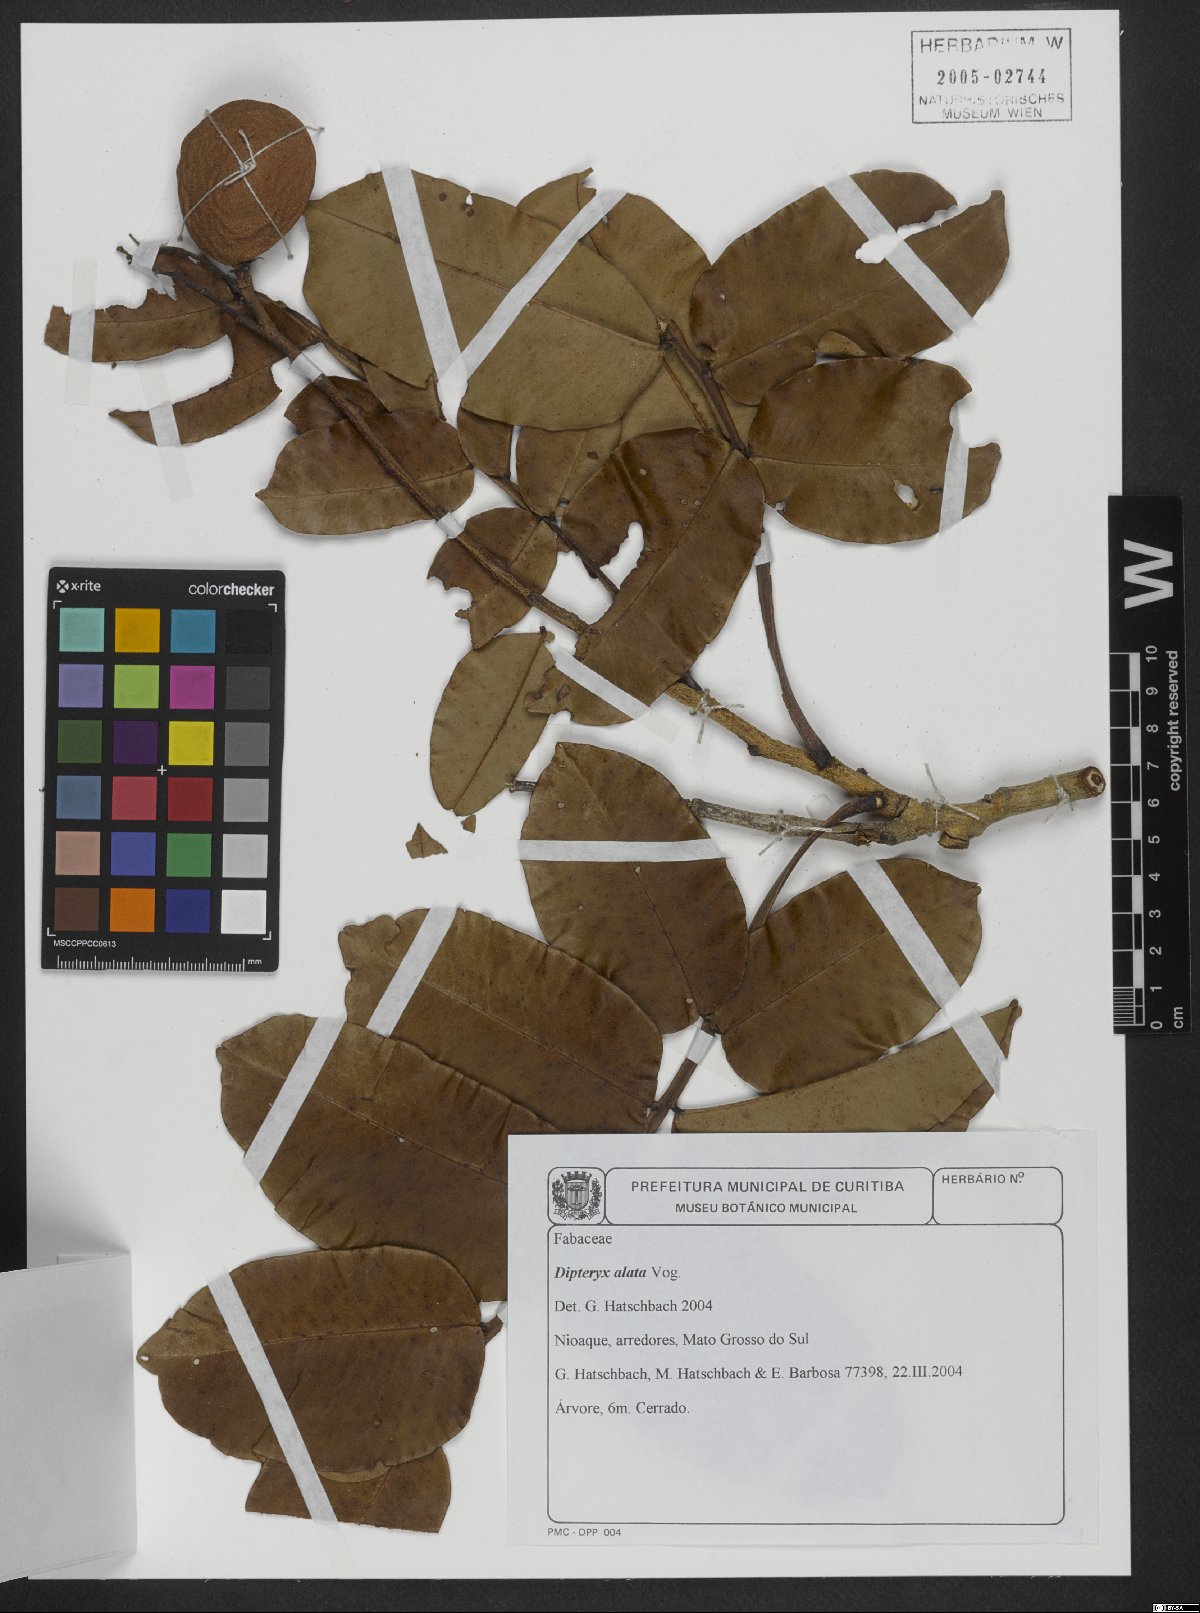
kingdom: Plantae
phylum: Tracheophyta
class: Magnoliopsida
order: Fabales
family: Fabaceae
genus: Dipteryx
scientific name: Dipteryx alata
